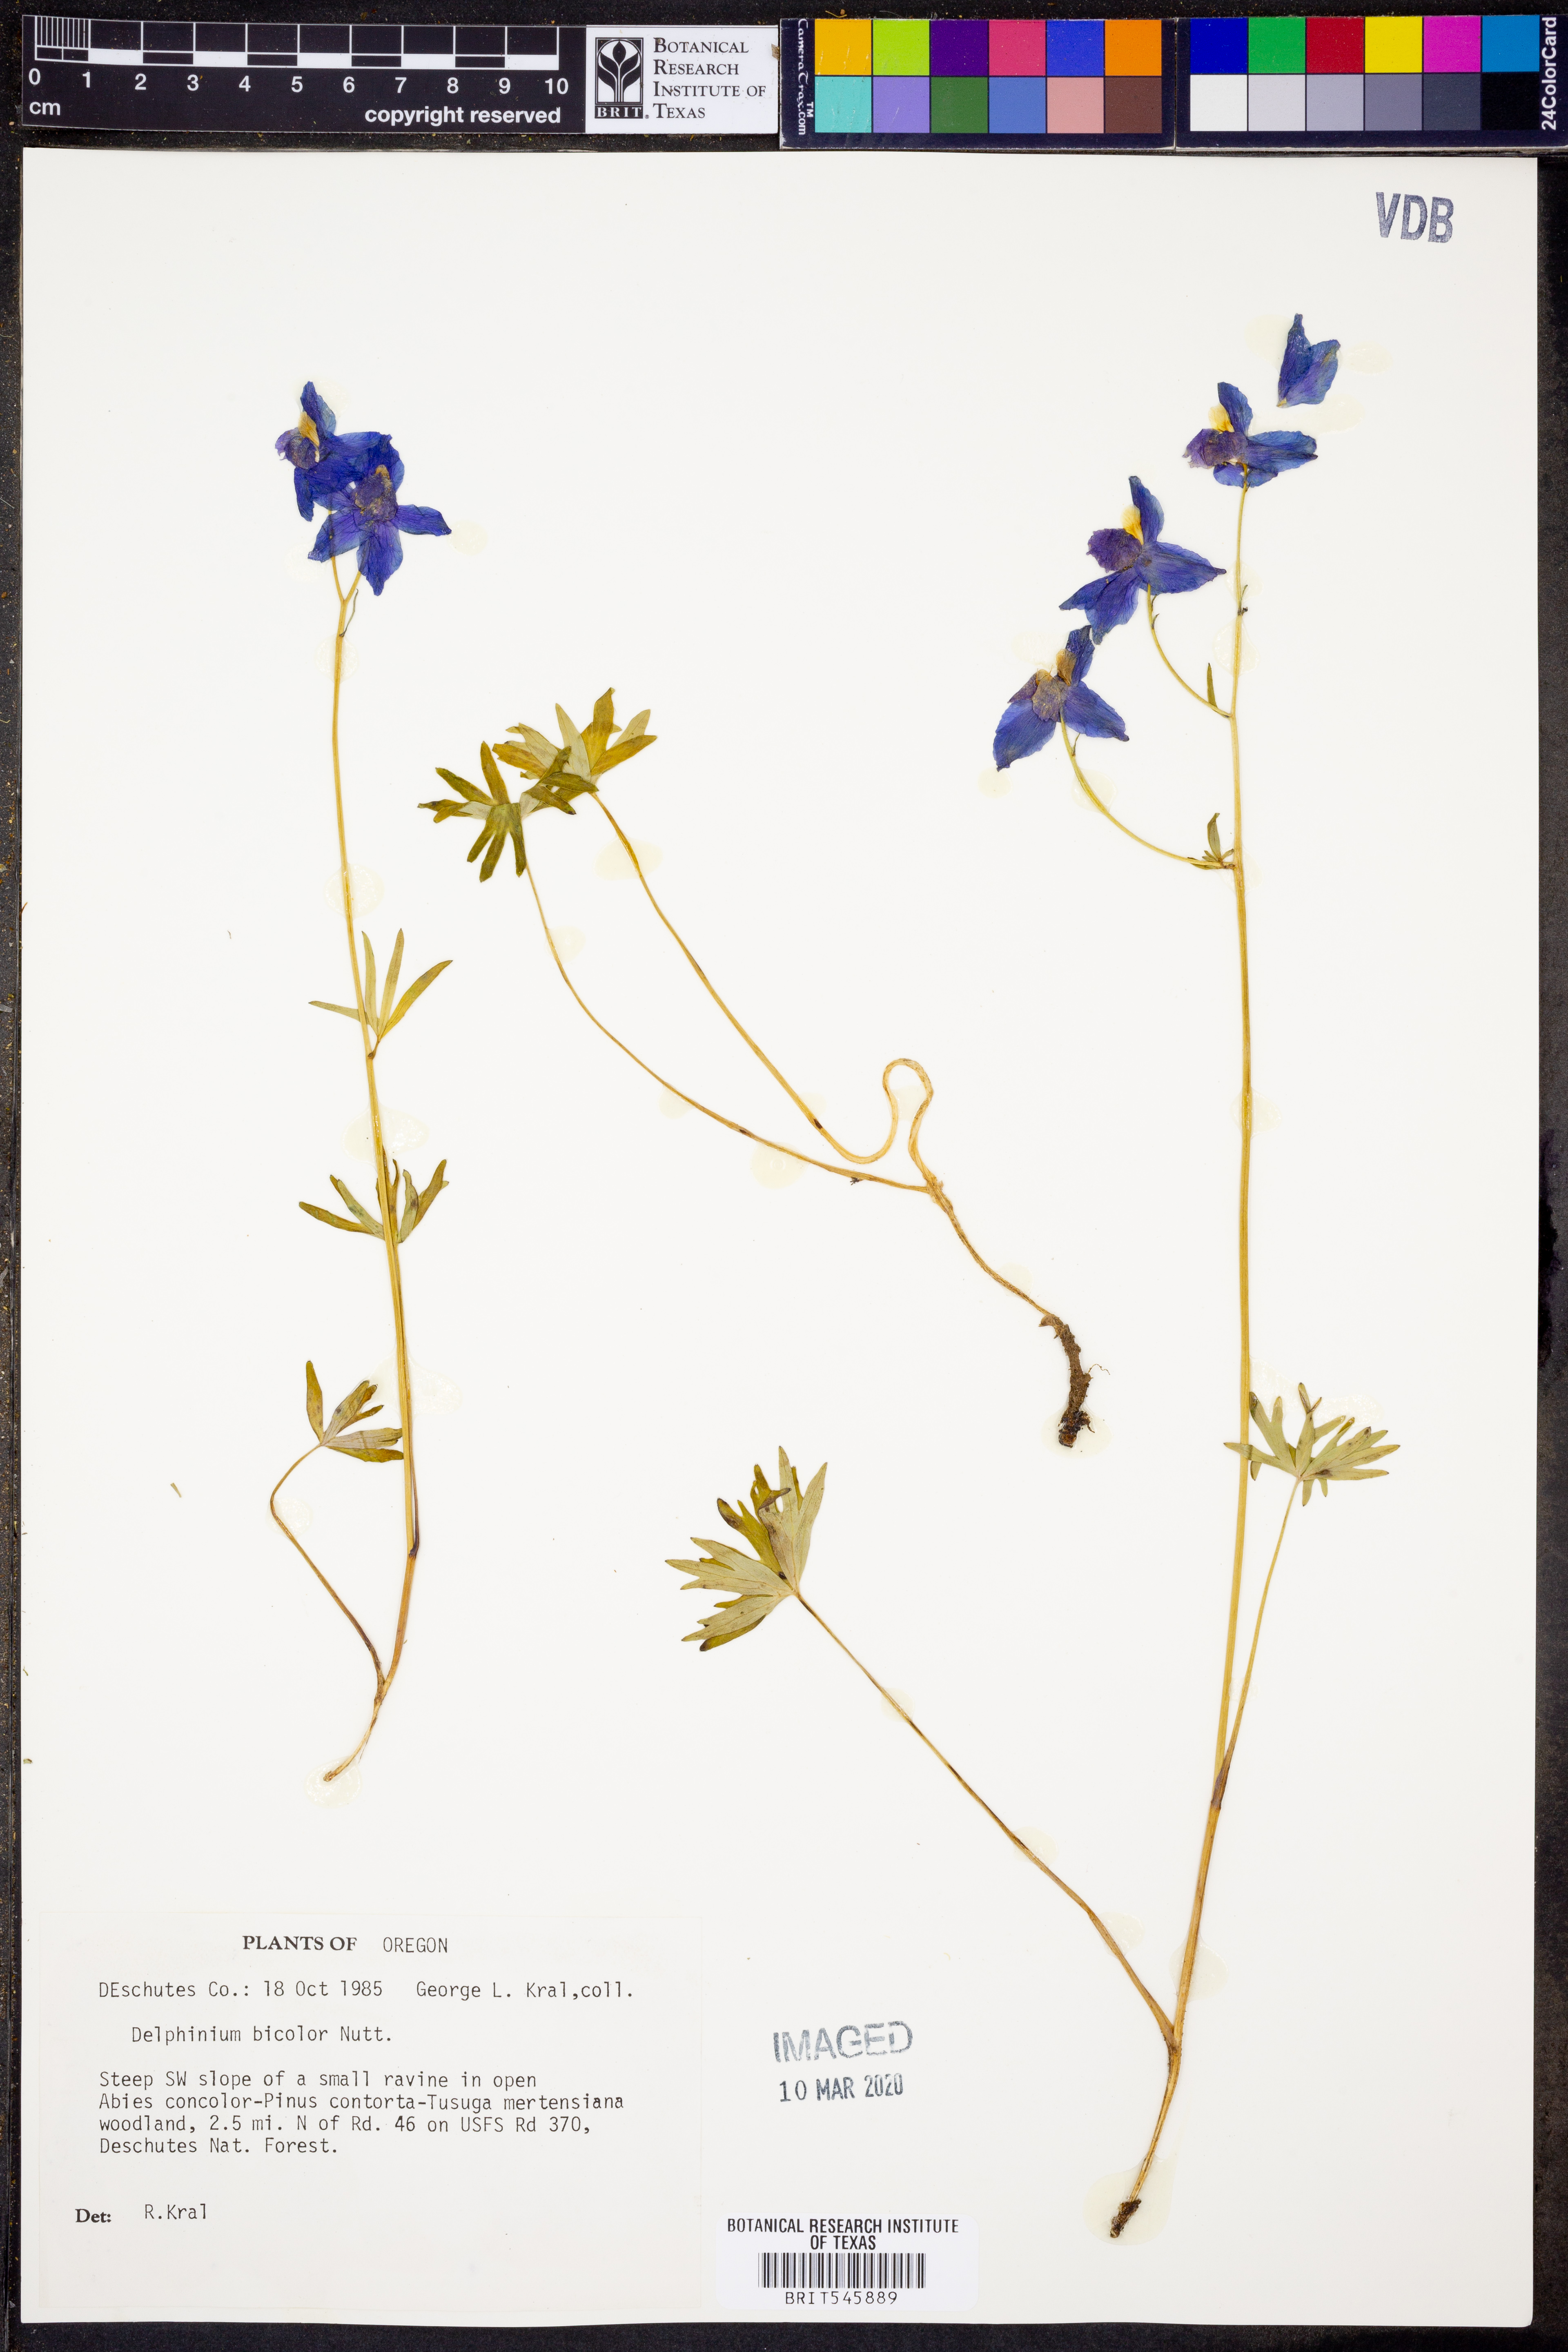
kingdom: Plantae
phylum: Tracheophyta
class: Magnoliopsida
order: Ranunculales
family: Ranunculaceae
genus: Delphinium
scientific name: Delphinium bicolor
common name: Low larkspur
